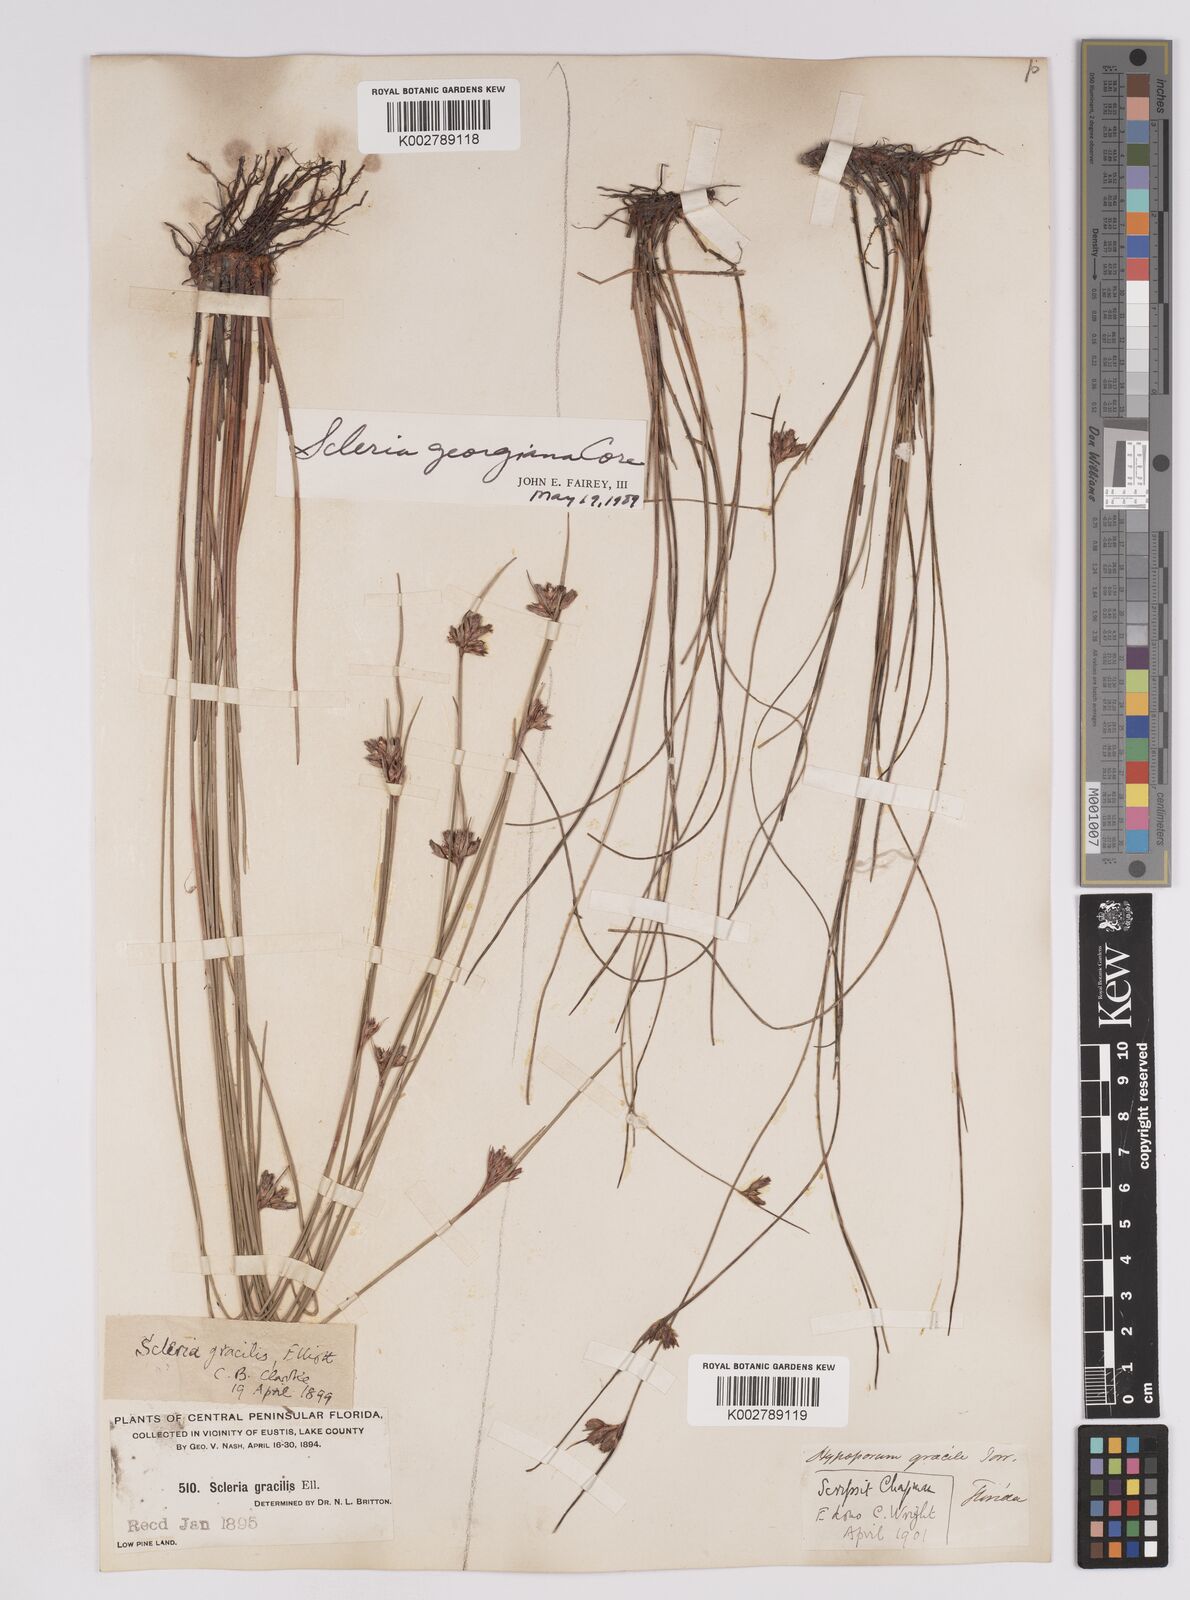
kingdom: Plantae
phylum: Tracheophyta
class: Liliopsida
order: Poales
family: Cyperaceae
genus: Scleria
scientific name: Scleria georgiana
